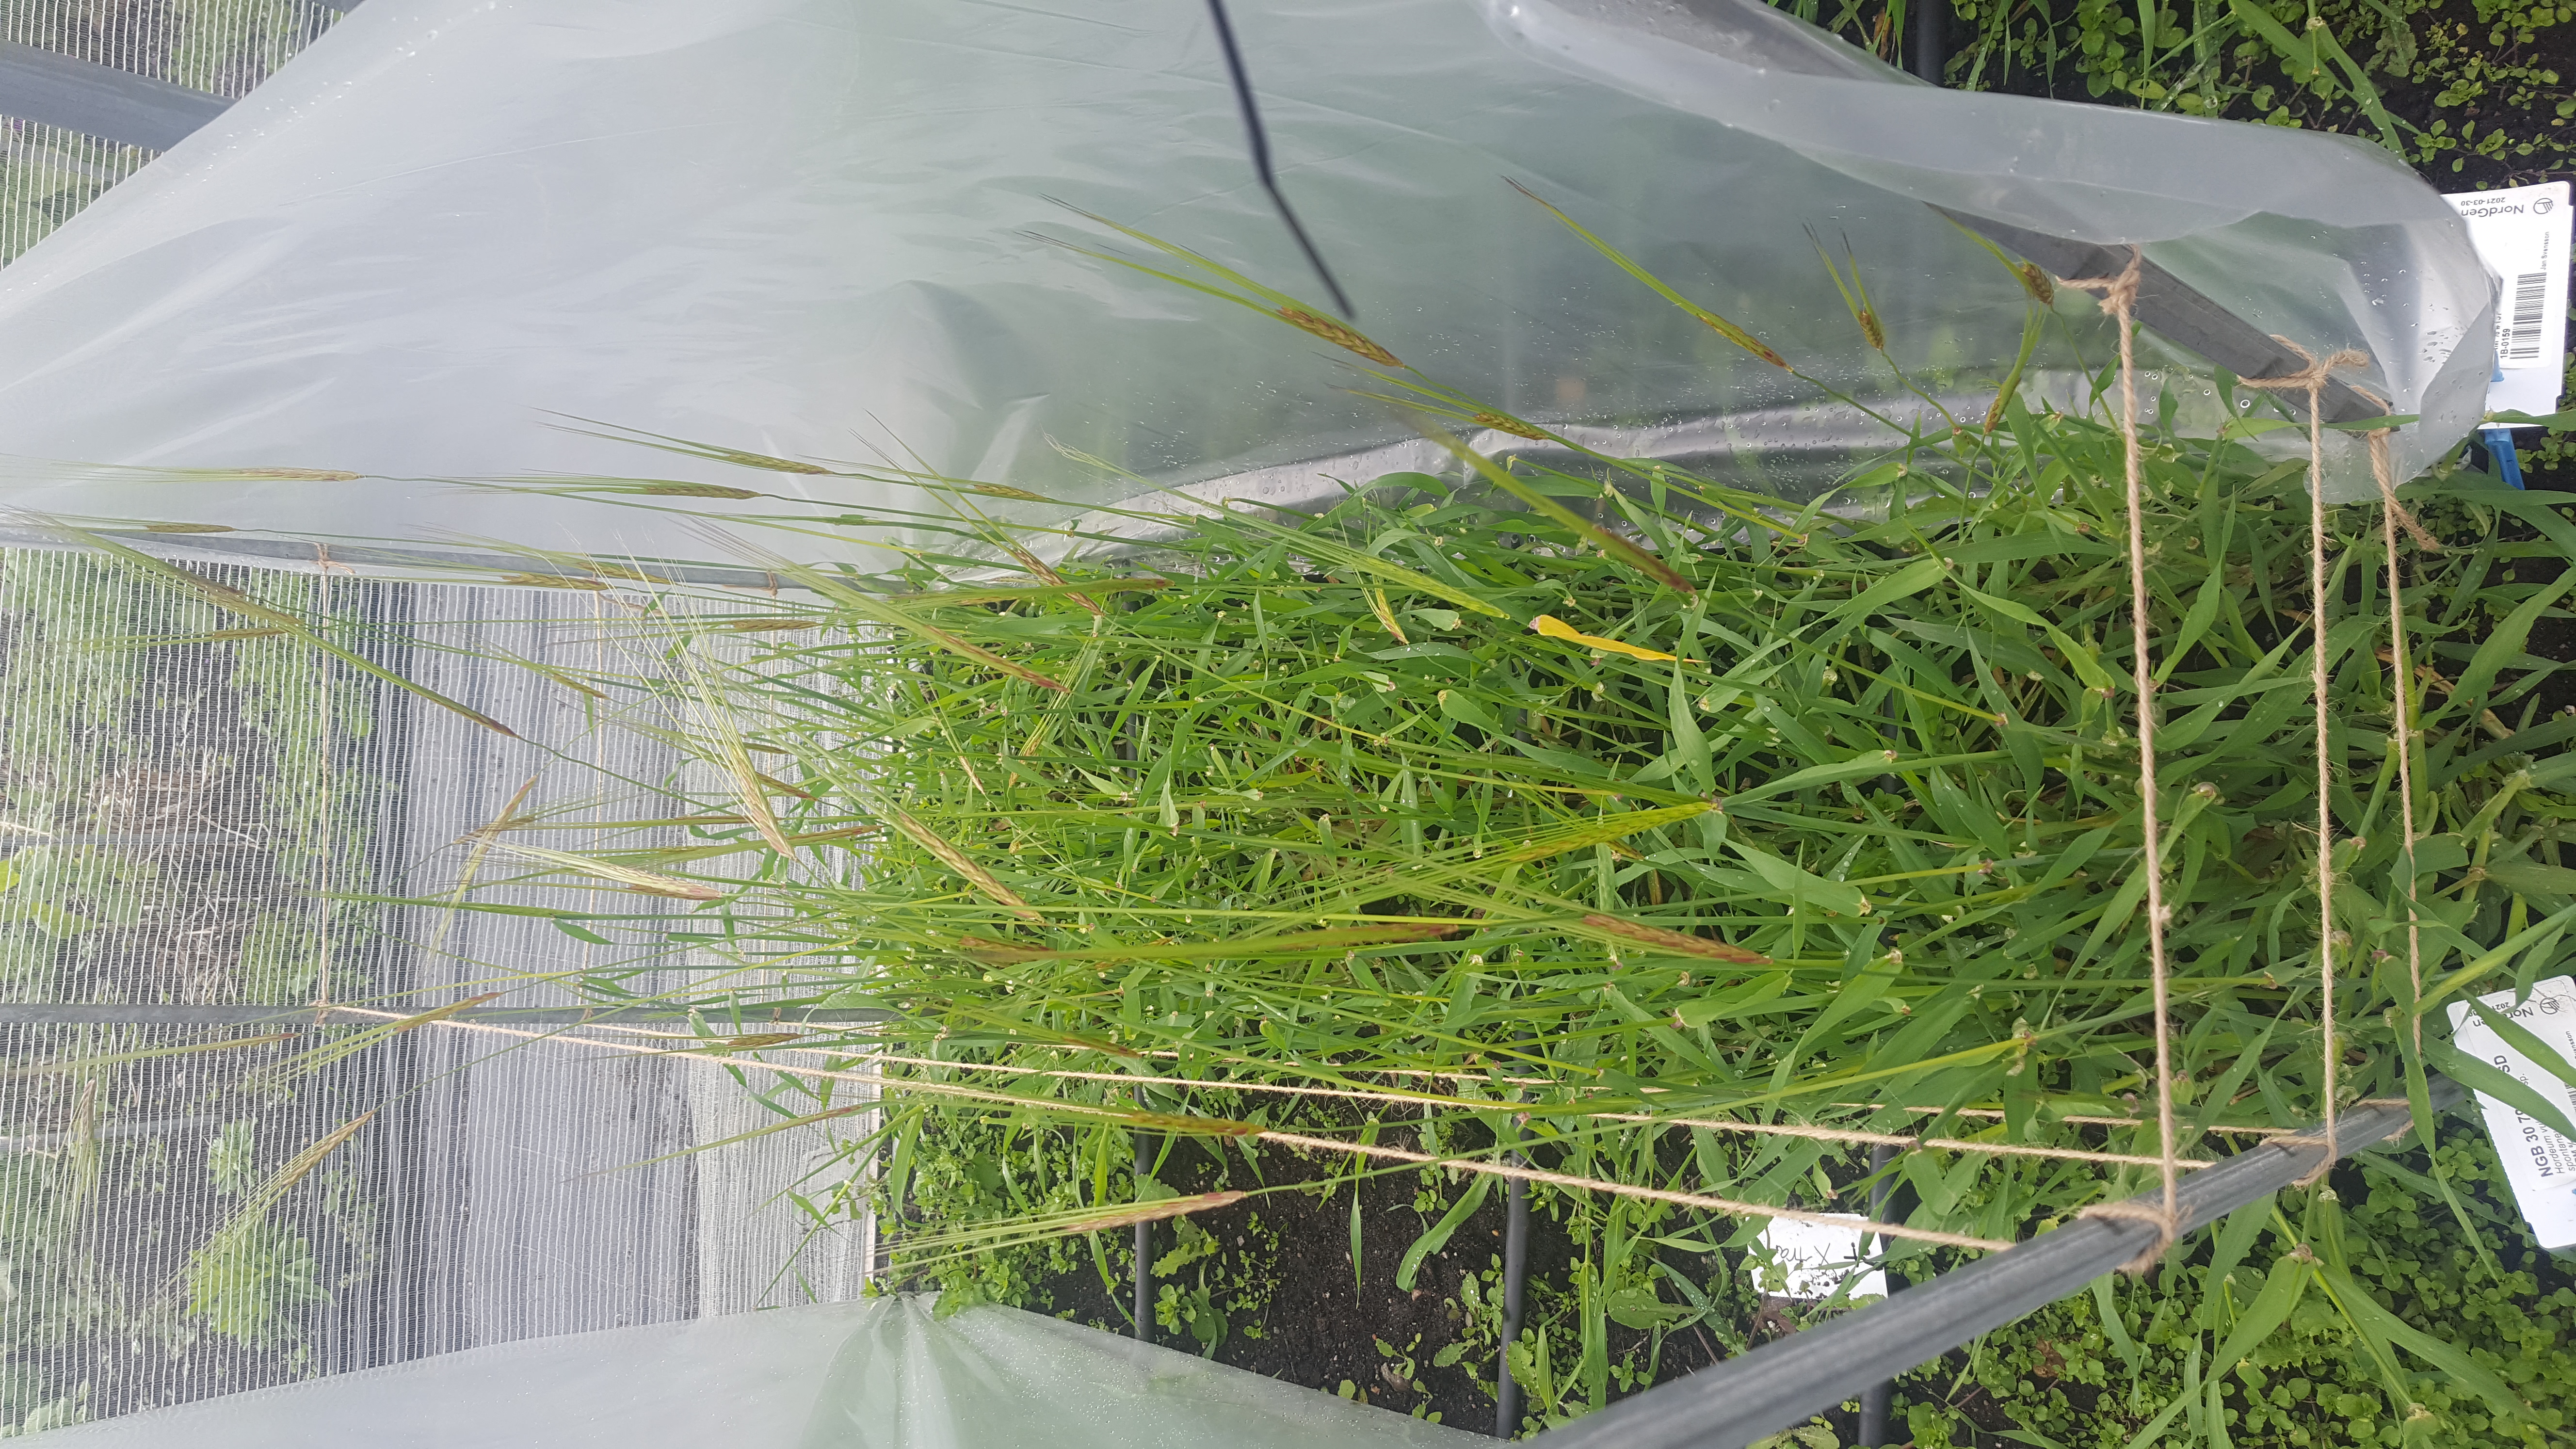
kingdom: Plantae
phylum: Tracheophyta
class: Liliopsida
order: Poales
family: Poaceae
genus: Hordeum
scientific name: Hordeum spontaneum
